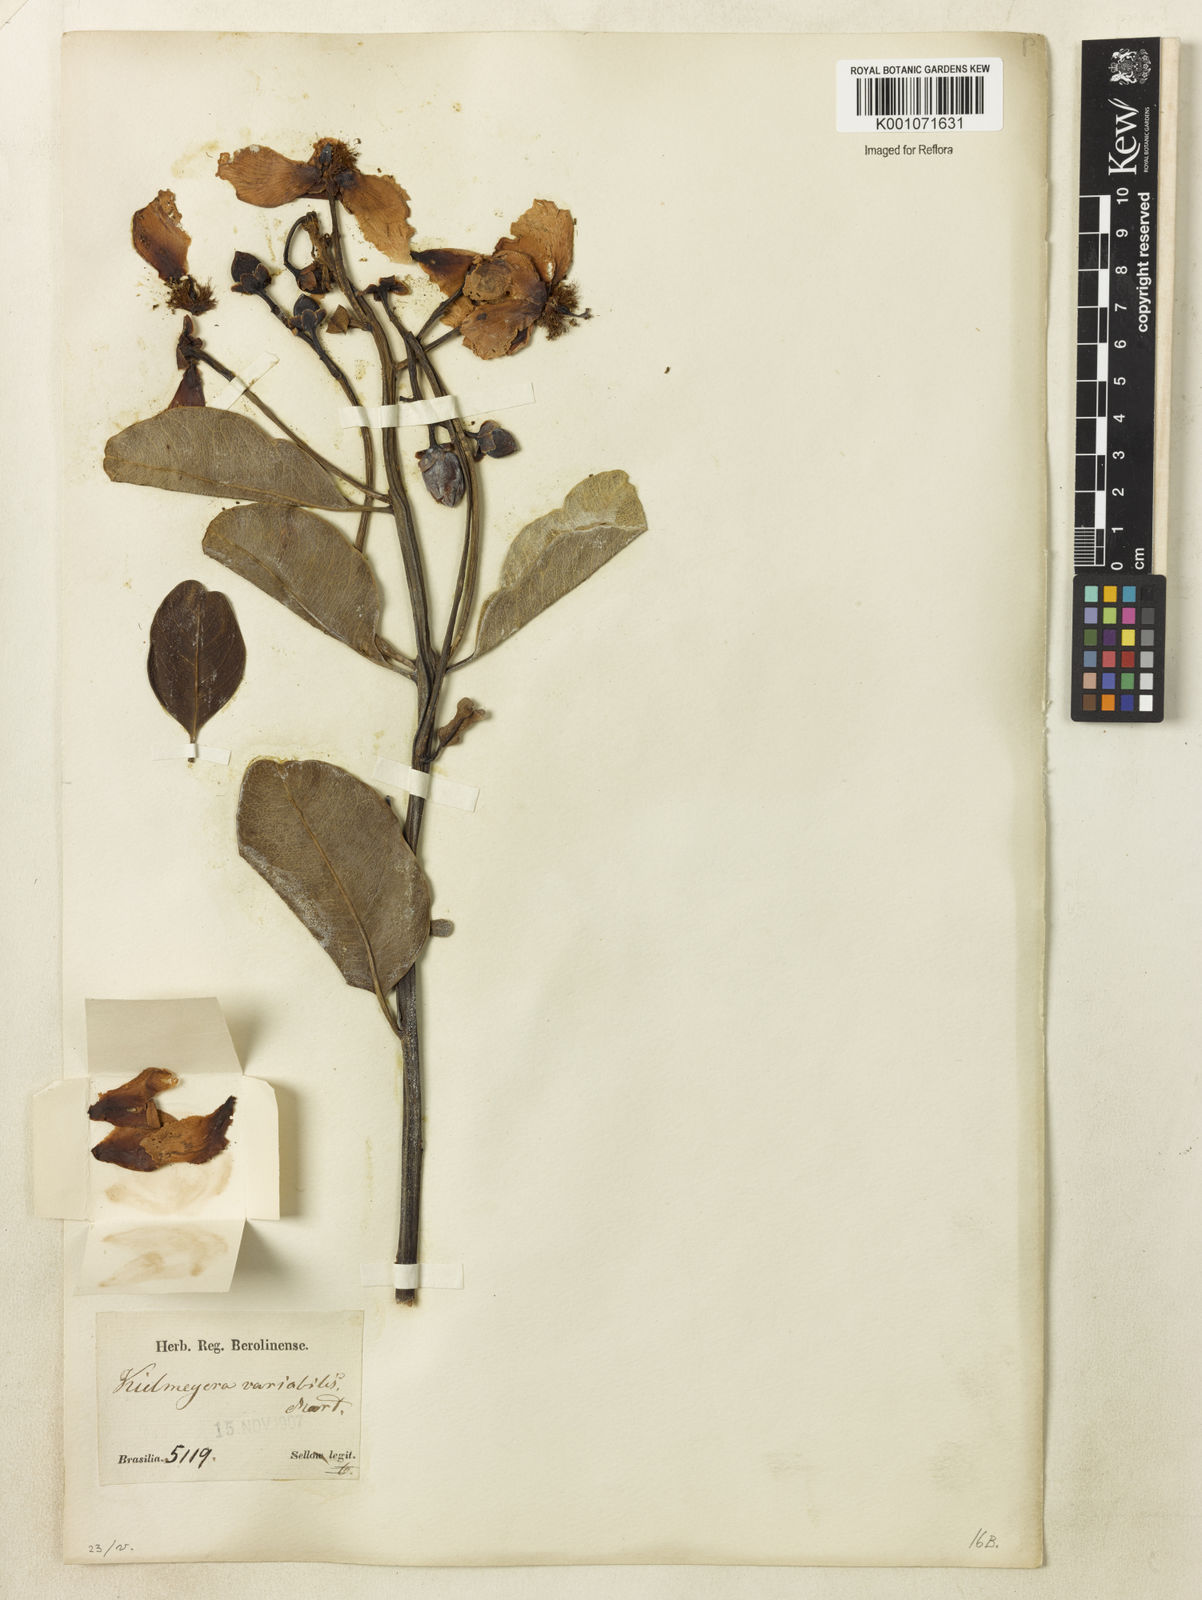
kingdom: Plantae
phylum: Tracheophyta
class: Magnoliopsida
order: Malpighiales
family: Calophyllaceae
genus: Kielmeyera
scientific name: Kielmeyera variabilis
